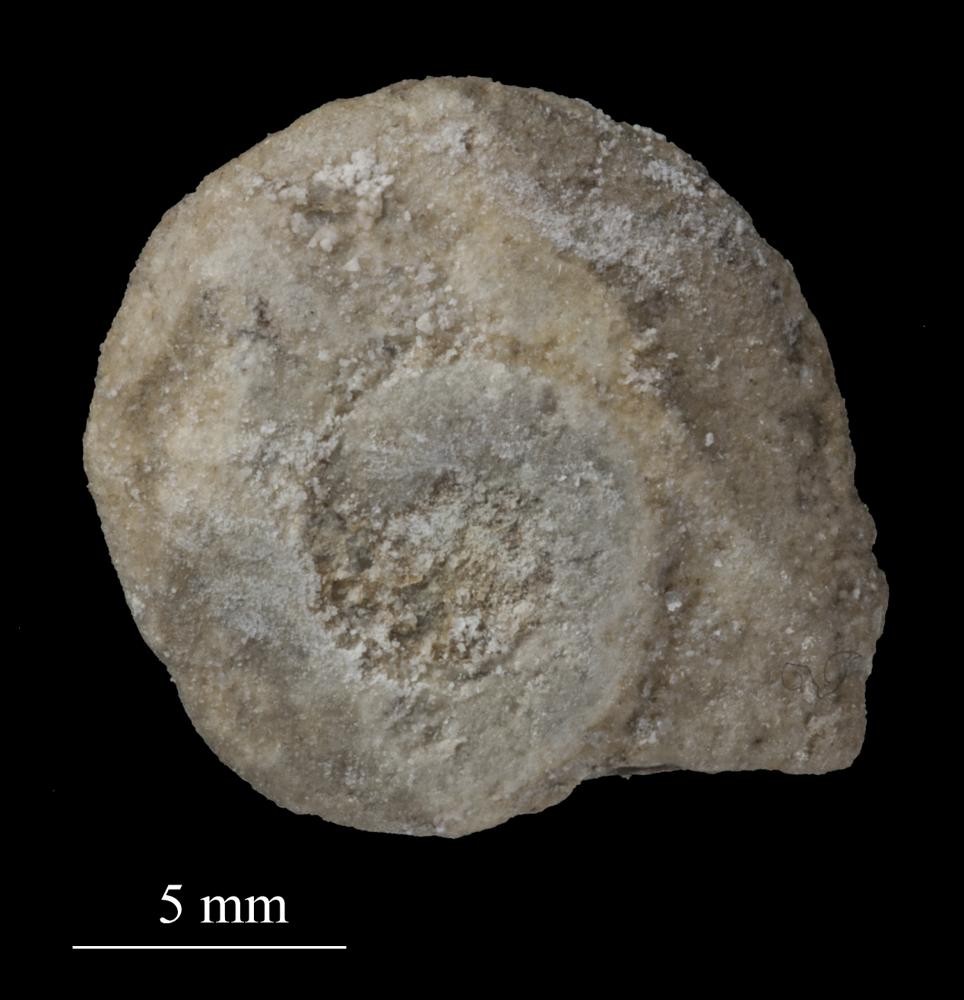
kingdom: Animalia
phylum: Mollusca
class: Gastropoda
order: Pleurotomariida
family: Phymatopleuridae
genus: Worthenia
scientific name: Worthenia
